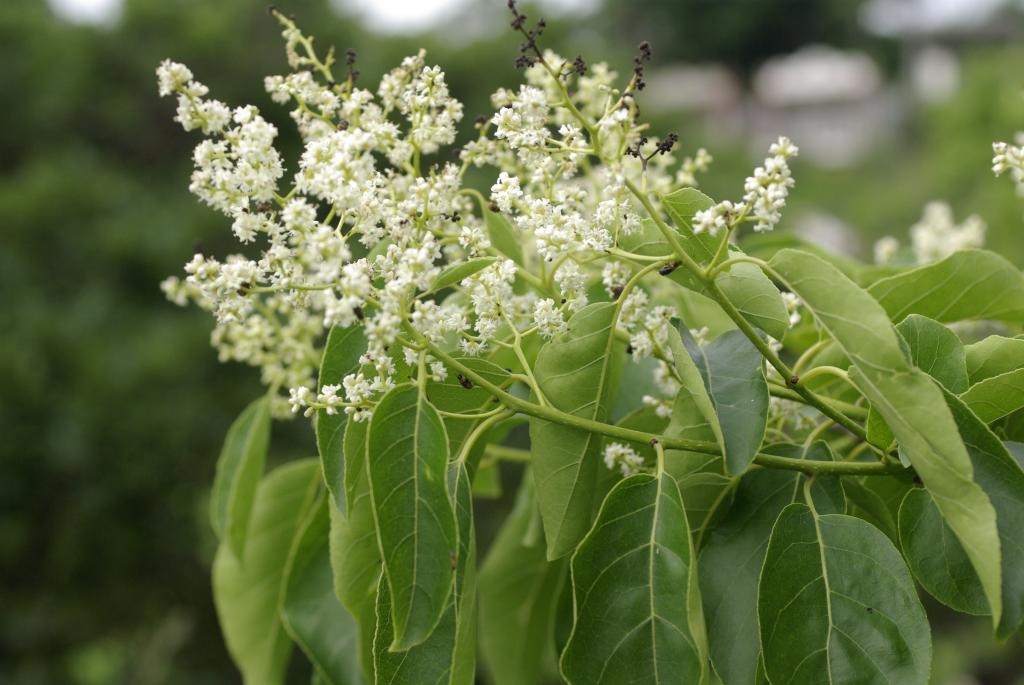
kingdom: Plantae
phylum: Tracheophyta
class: Magnoliopsida
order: Boraginales
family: Ehretiaceae
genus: Ehretia
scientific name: Ehretia acuminata
